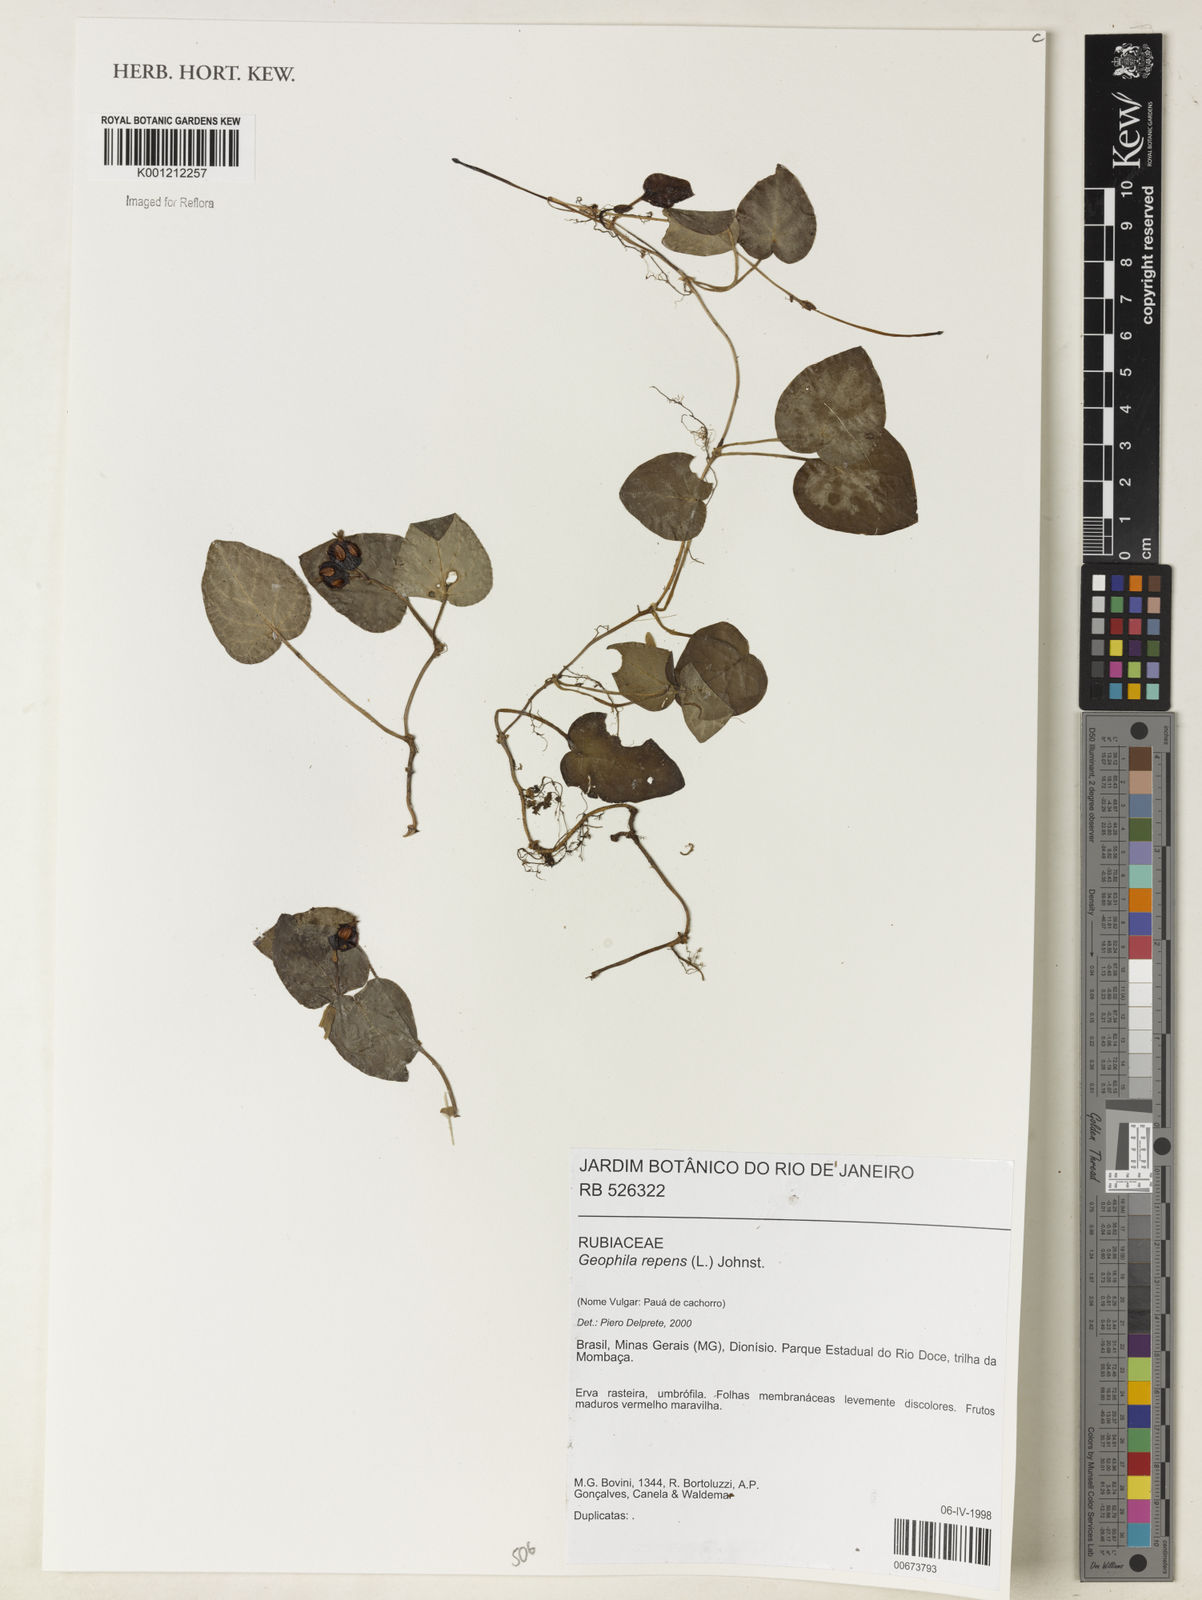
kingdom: Plantae
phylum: Tracheophyta
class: Magnoliopsida
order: Gentianales
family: Rubiaceae
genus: Geophila
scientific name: Geophila repens
